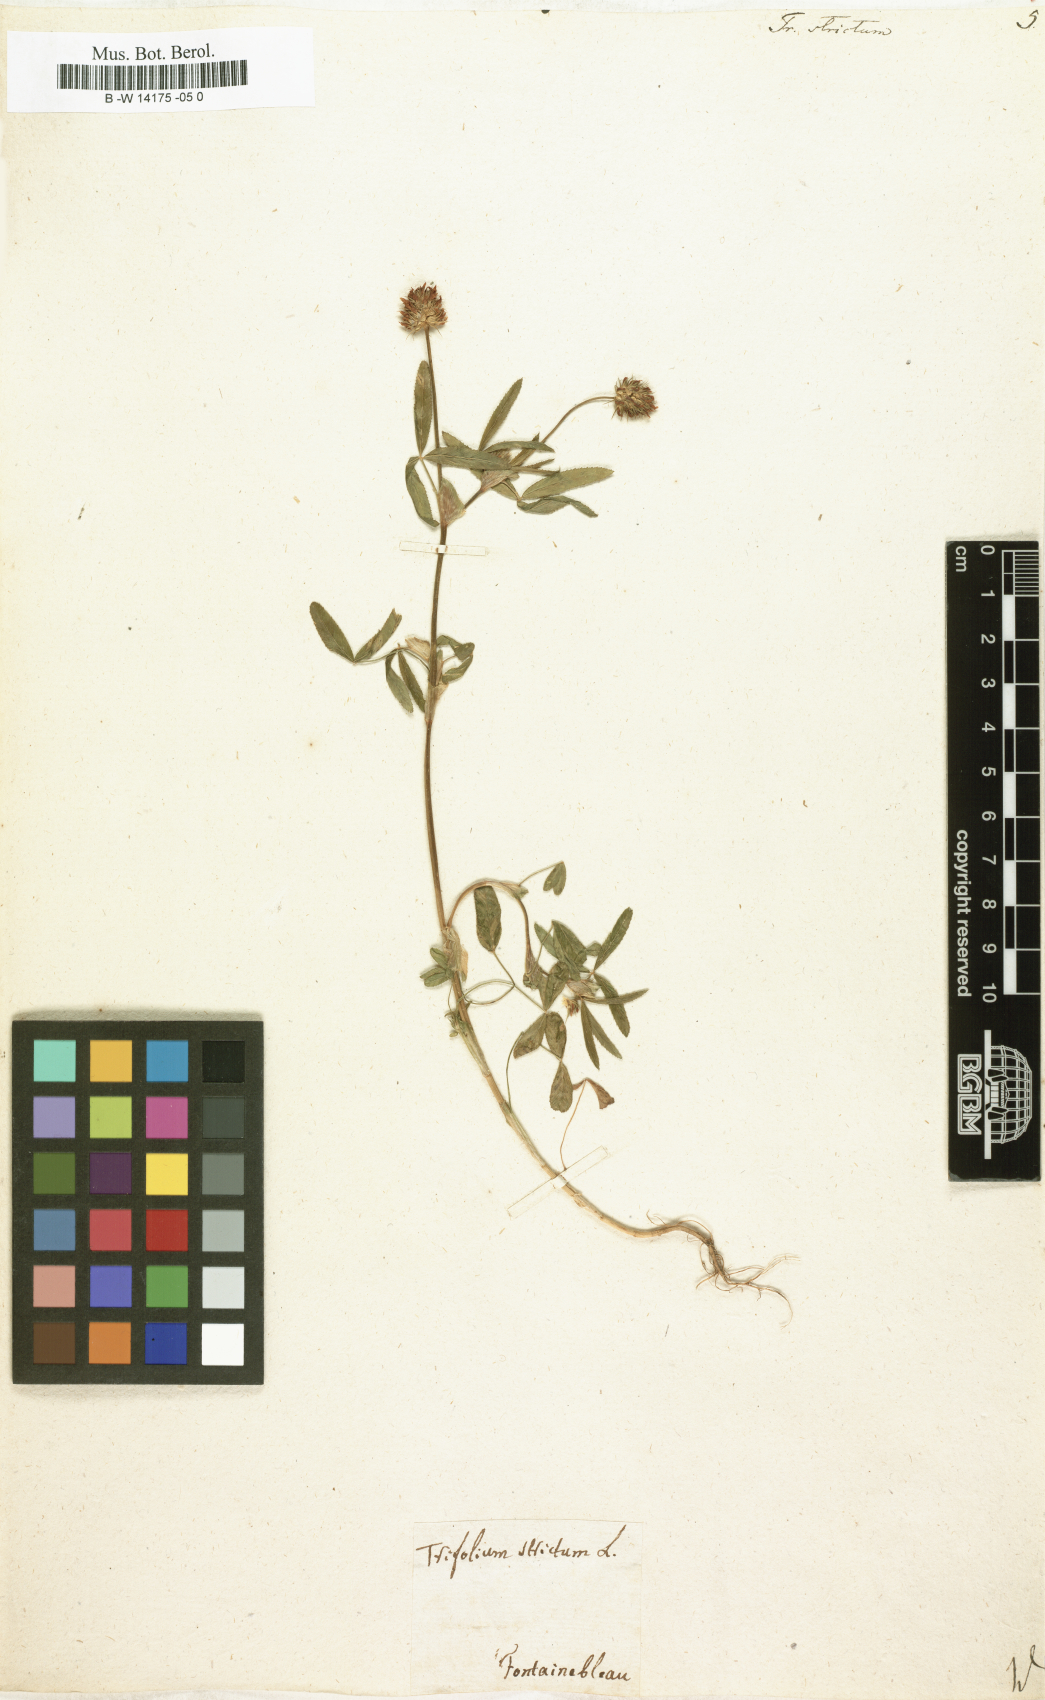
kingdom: Plantae
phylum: Tracheophyta
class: Magnoliopsida
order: Fabales
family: Fabaceae
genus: Trifolium
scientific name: Trifolium strictum
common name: Upright clover
